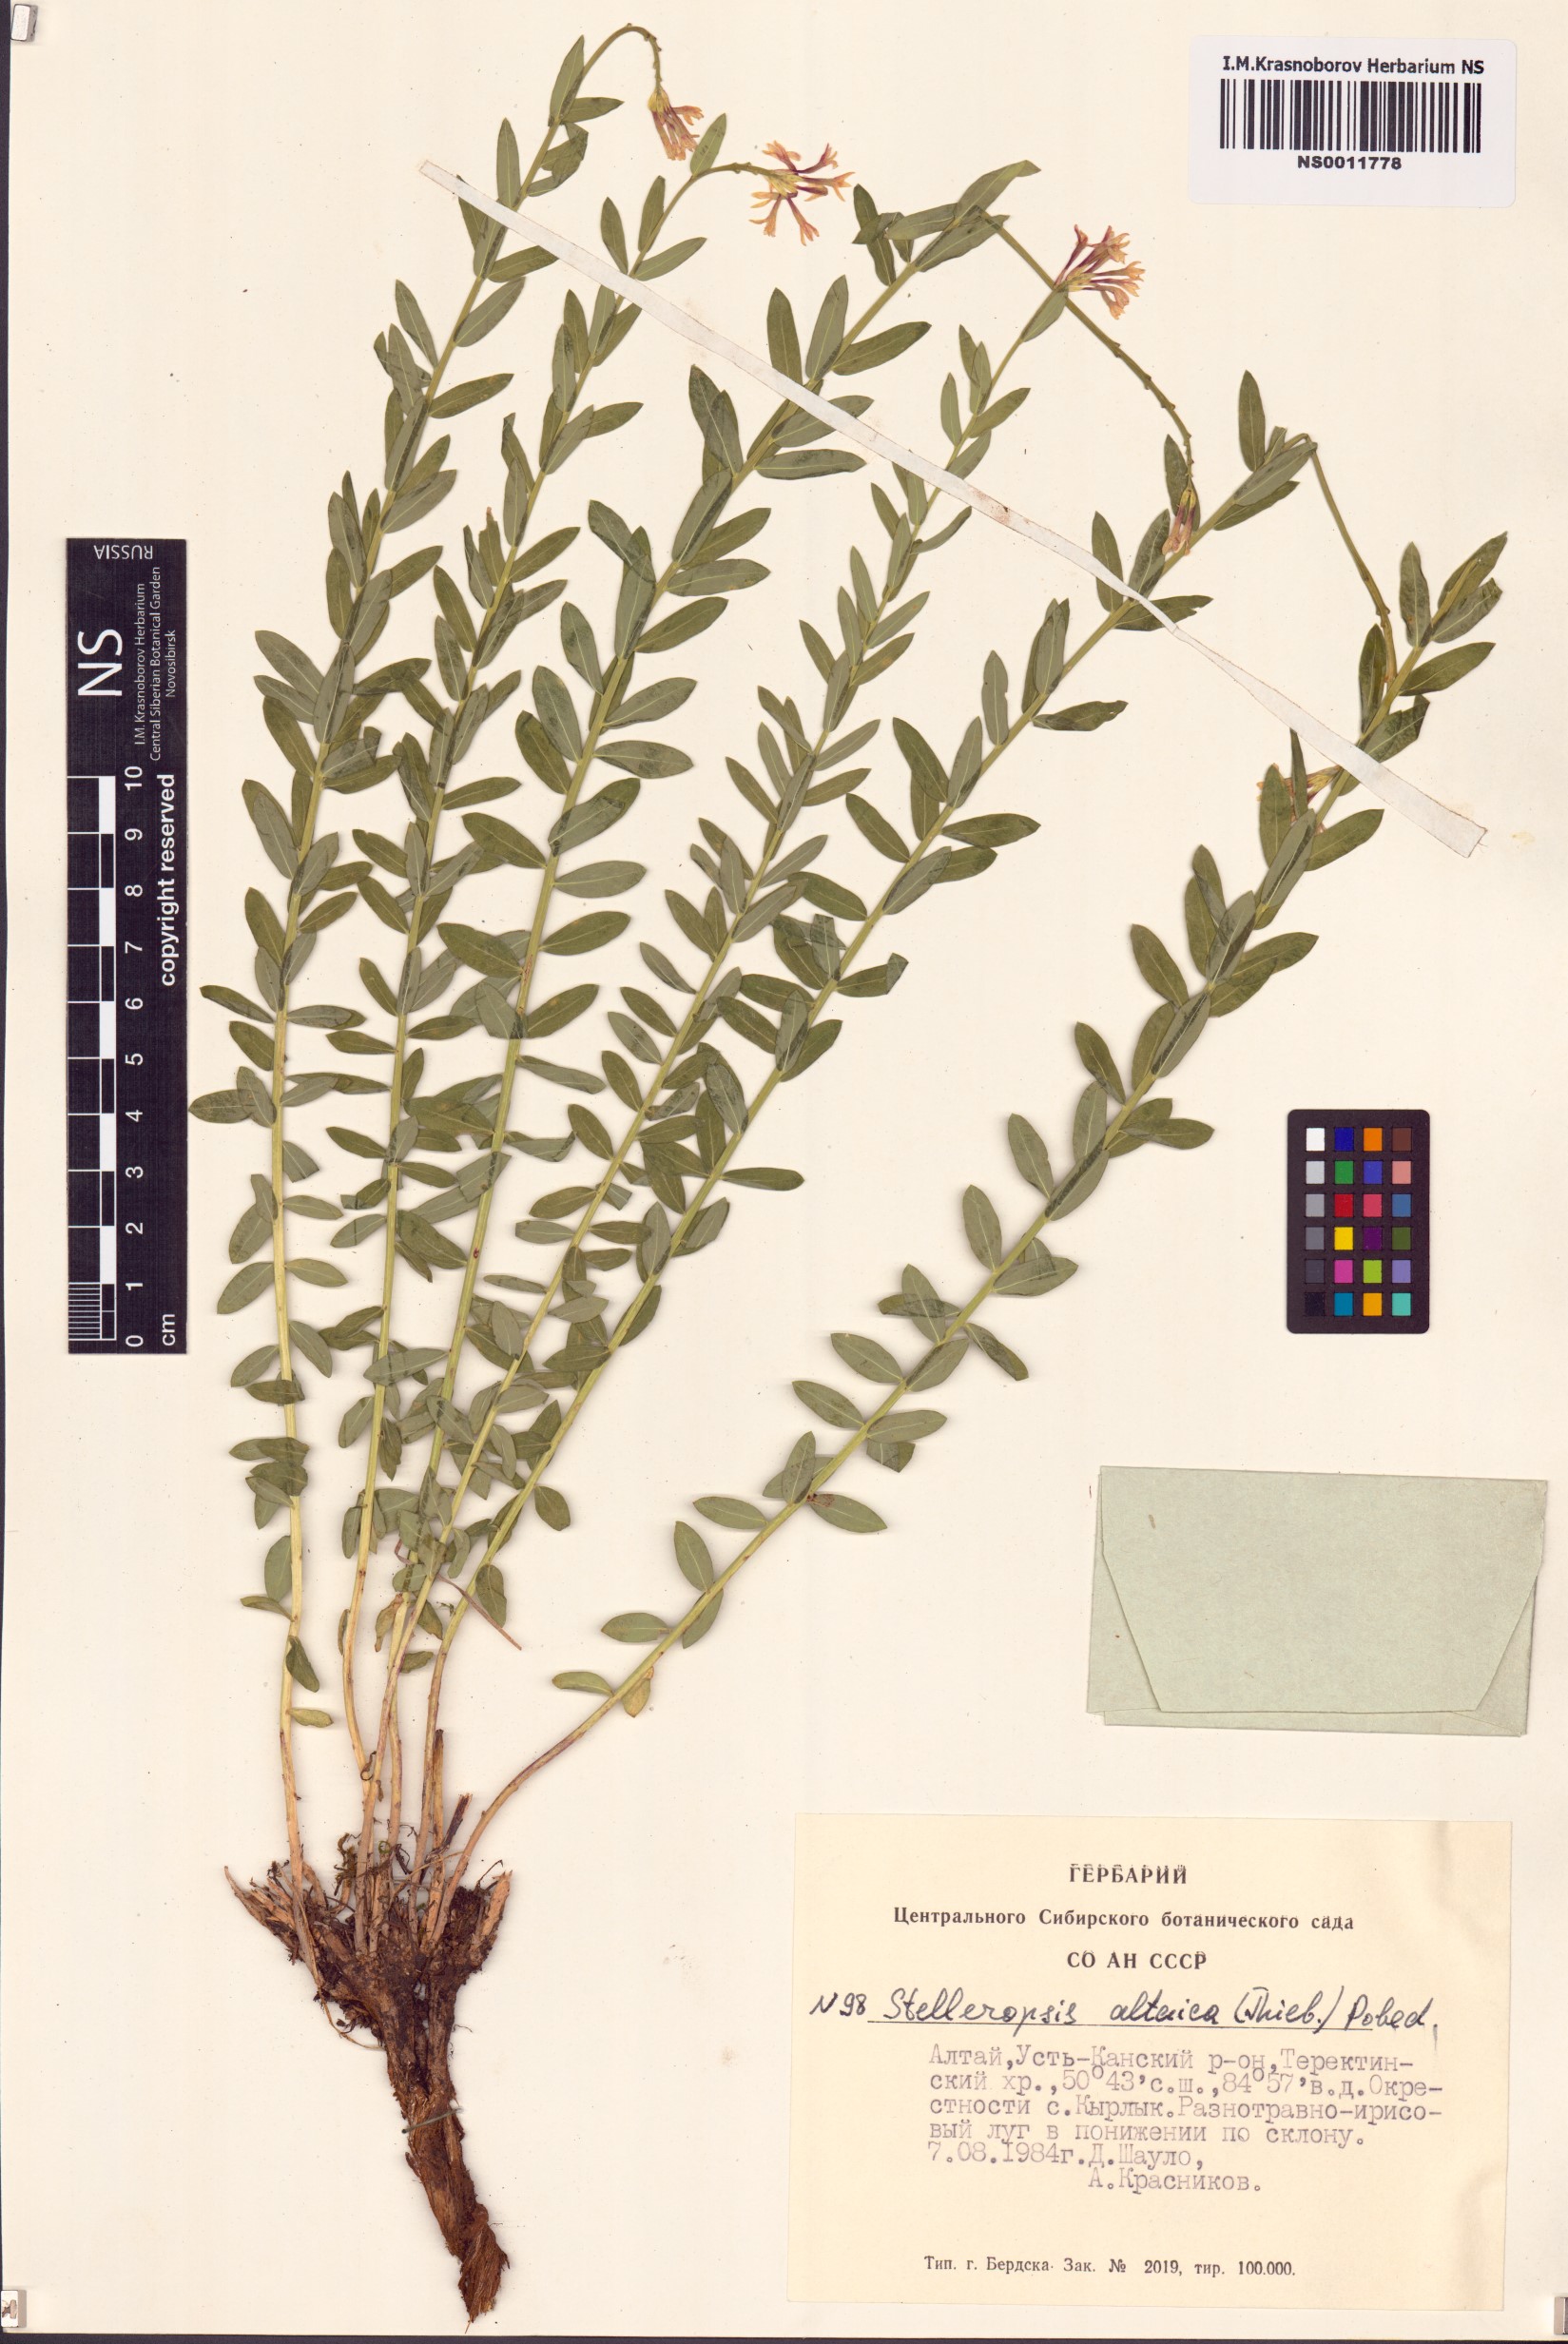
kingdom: Plantae
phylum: Tracheophyta
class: Magnoliopsida
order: Malvales
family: Thymelaeaceae
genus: Diarthron
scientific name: Diarthron altaicum
